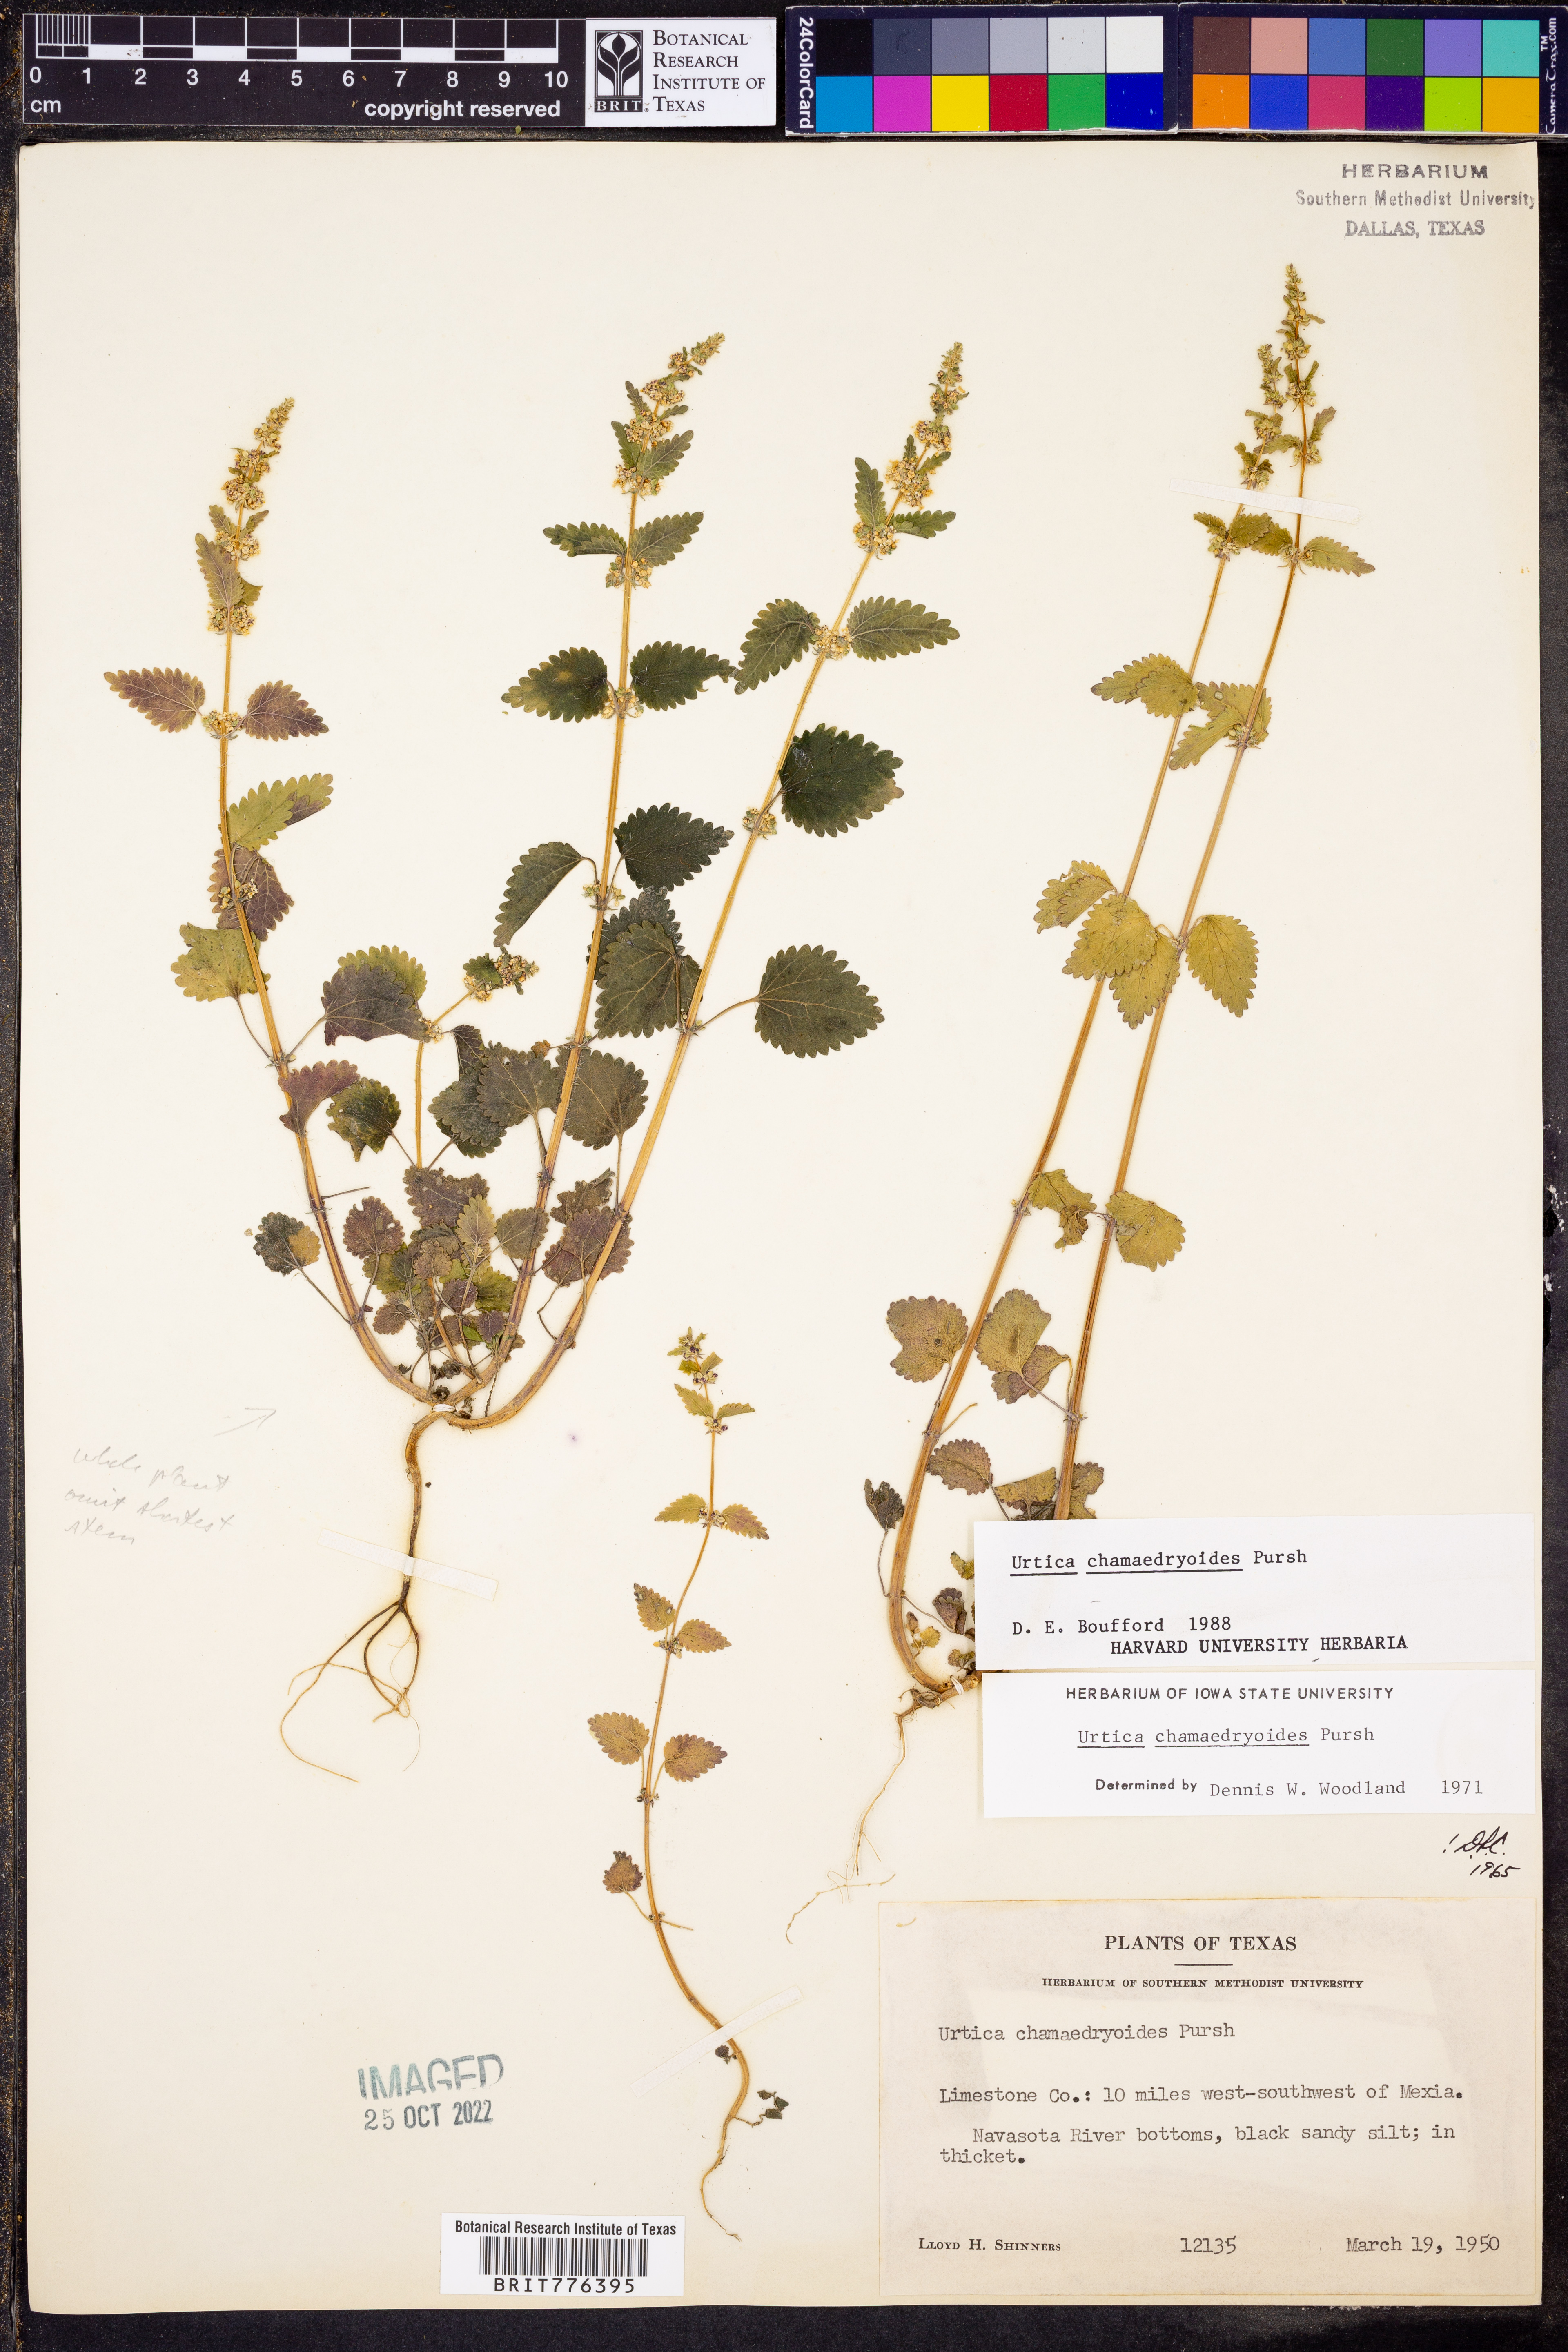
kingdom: Plantae
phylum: Tracheophyta
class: Magnoliopsida
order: Rosales
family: Urticaceae
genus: Urtica
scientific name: Urtica chamaedryoides
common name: Heart-leaf nettle
